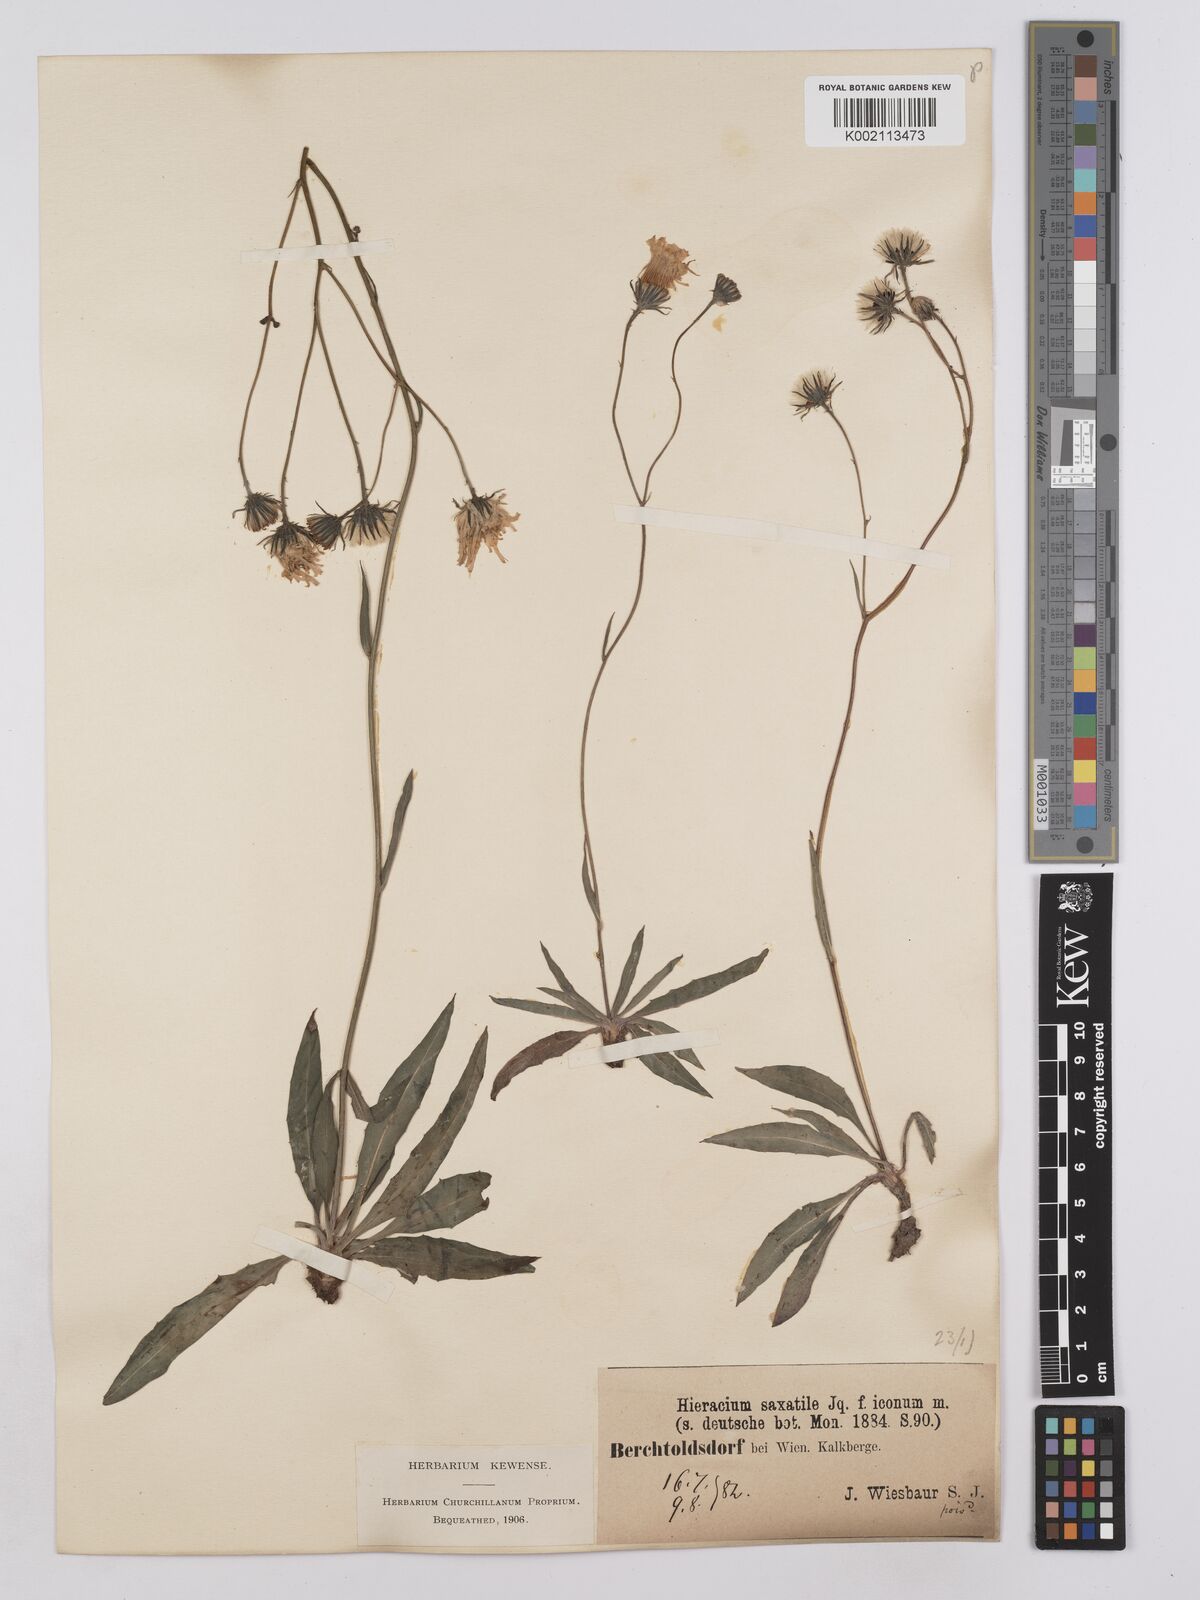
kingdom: Plantae
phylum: Tracheophyta
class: Magnoliopsida
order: Asterales
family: Asteraceae
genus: Hieracium
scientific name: Hieracium saxatile
